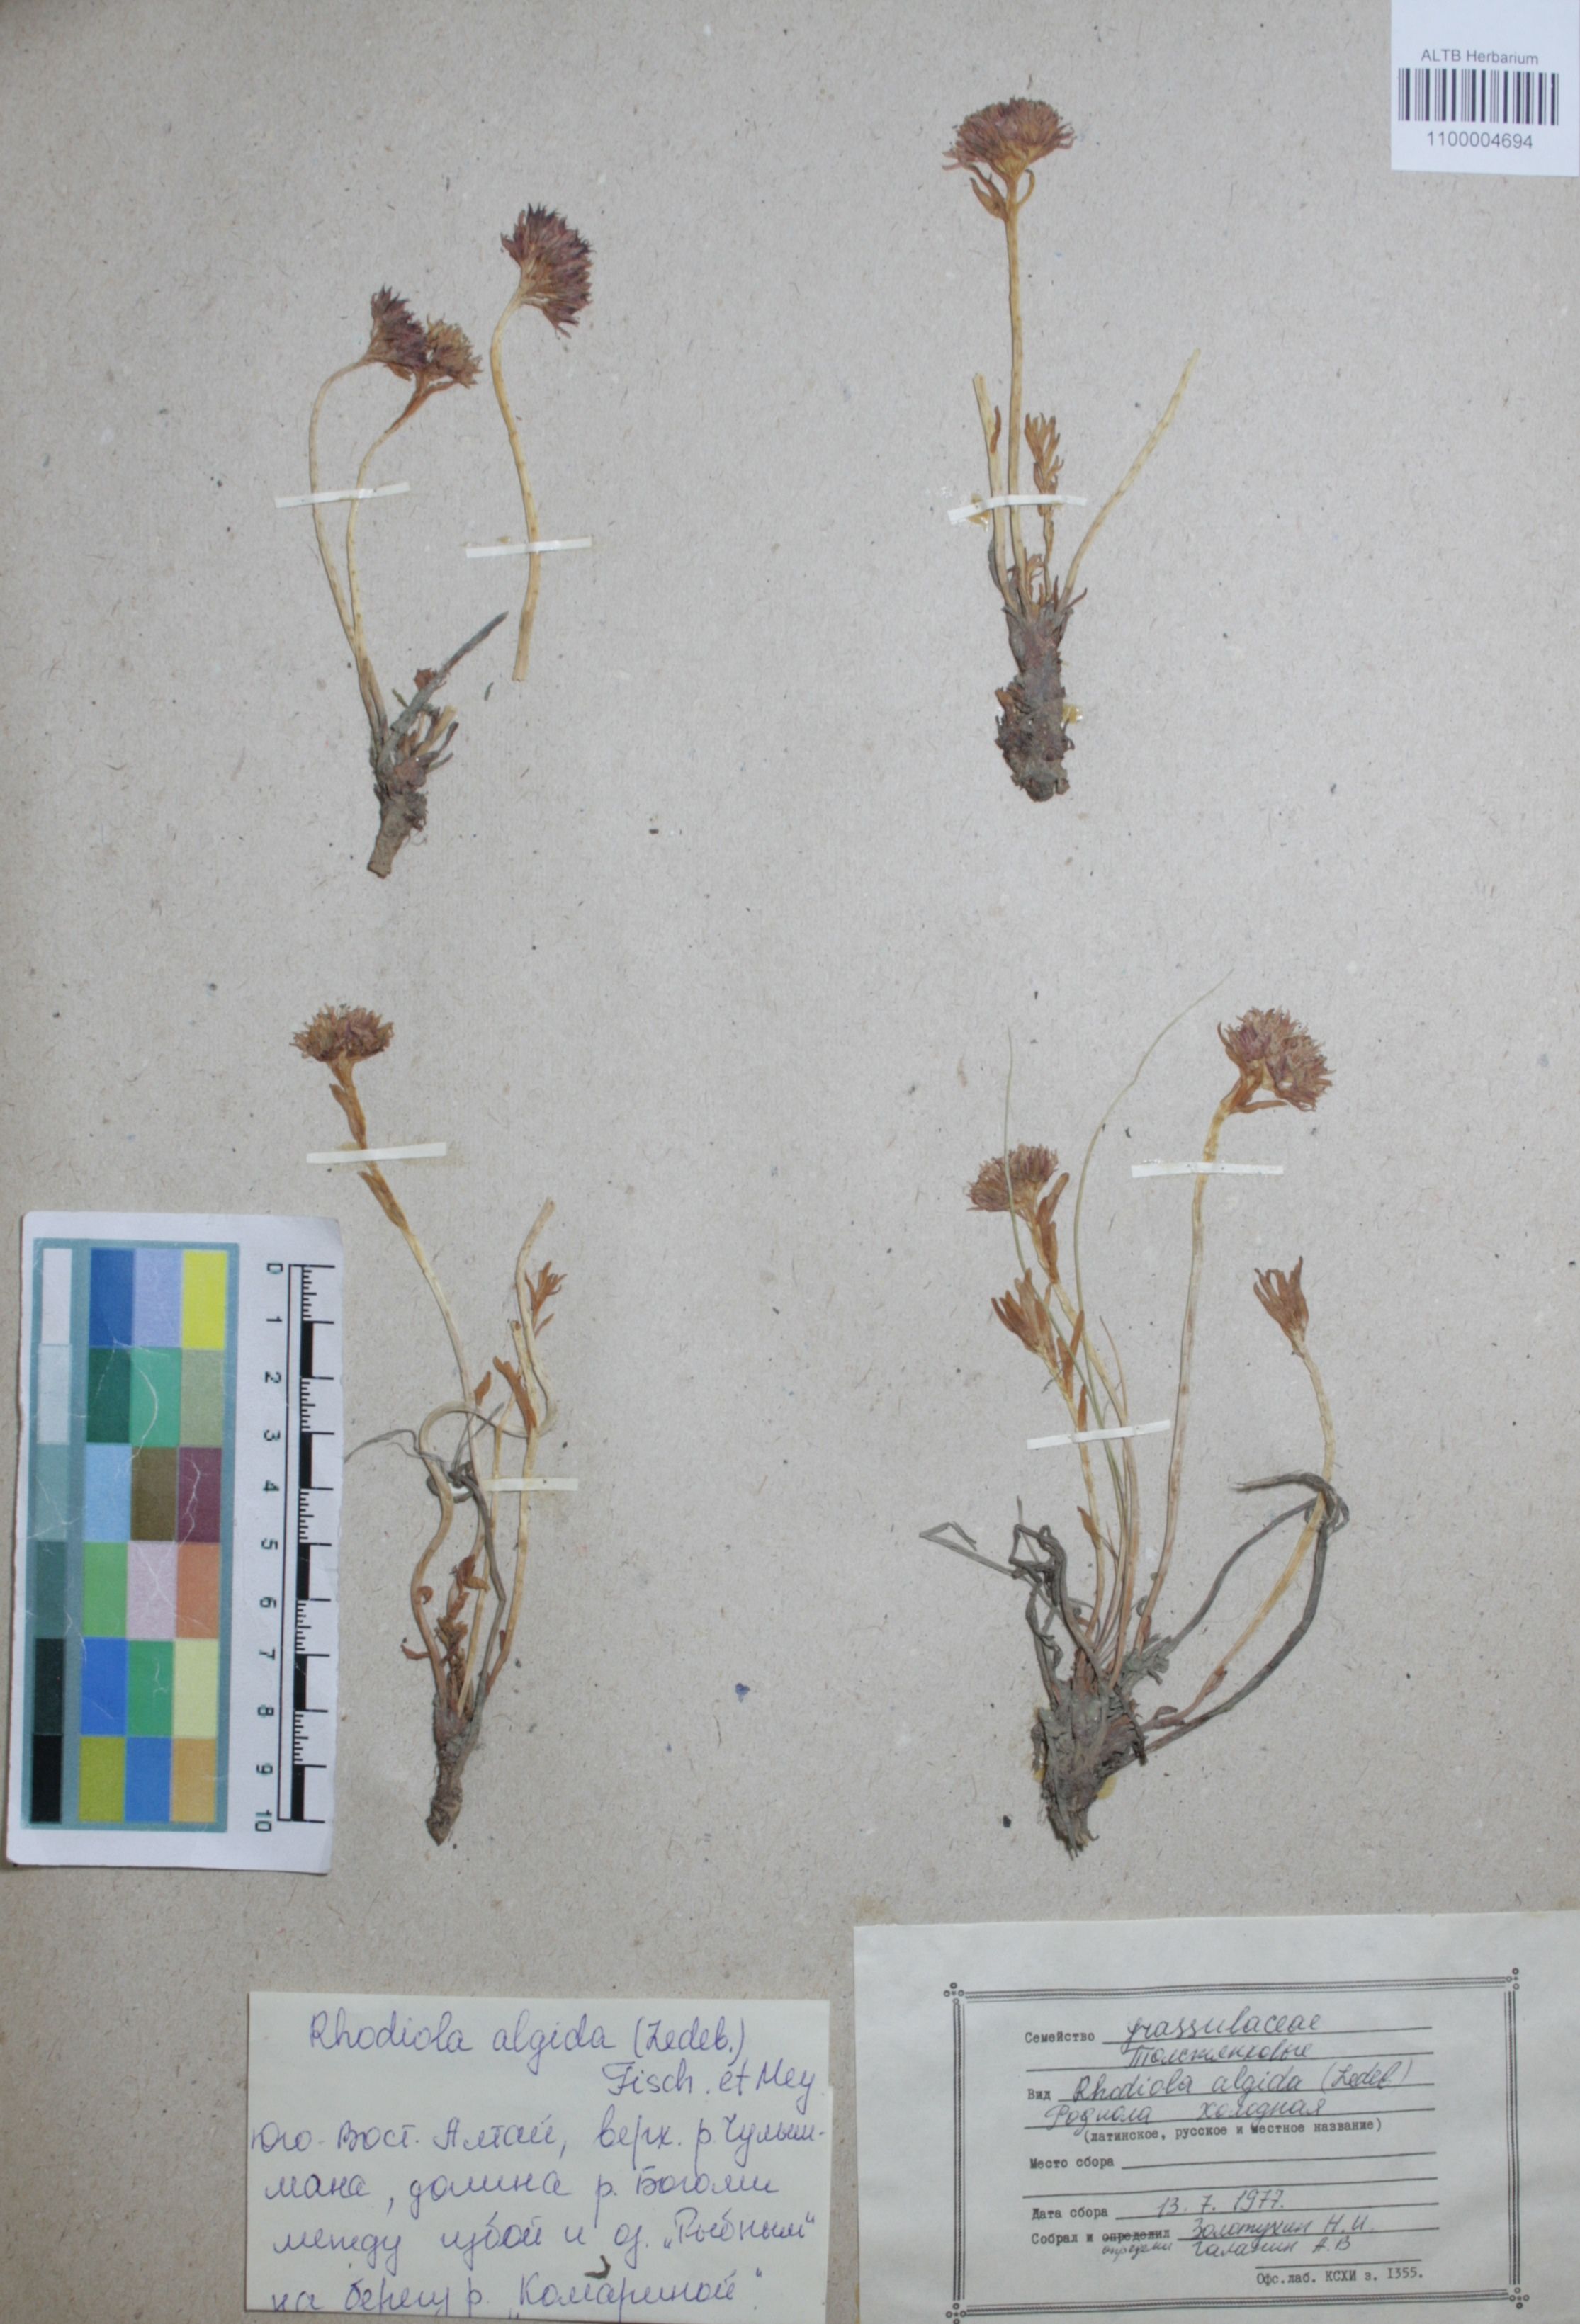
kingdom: Plantae
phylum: Tracheophyta
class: Magnoliopsida
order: Saxifragales
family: Crassulaceae
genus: Rhodiola
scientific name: Rhodiola algida
